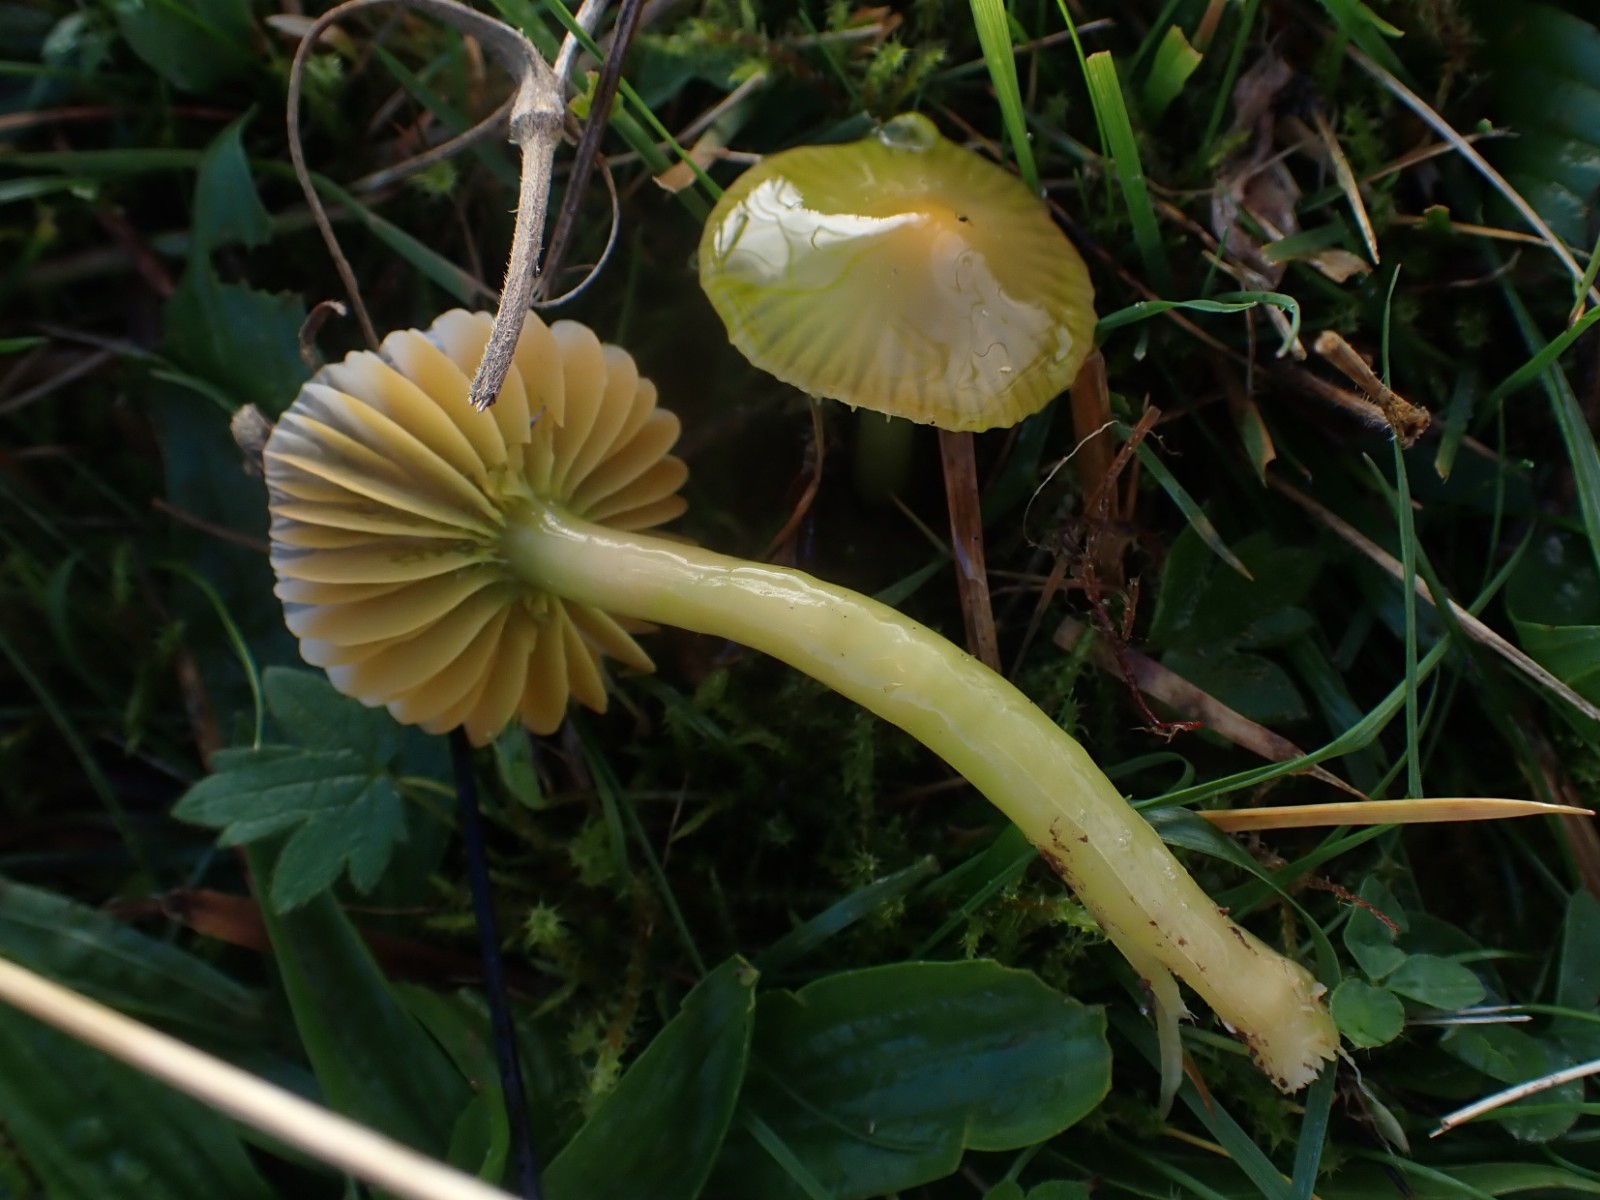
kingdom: Fungi
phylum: Basidiomycota
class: Agaricomycetes
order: Agaricales
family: Hygrophoraceae
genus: Gliophorus
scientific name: Gliophorus psittacinus
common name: papegøje-vokshat
